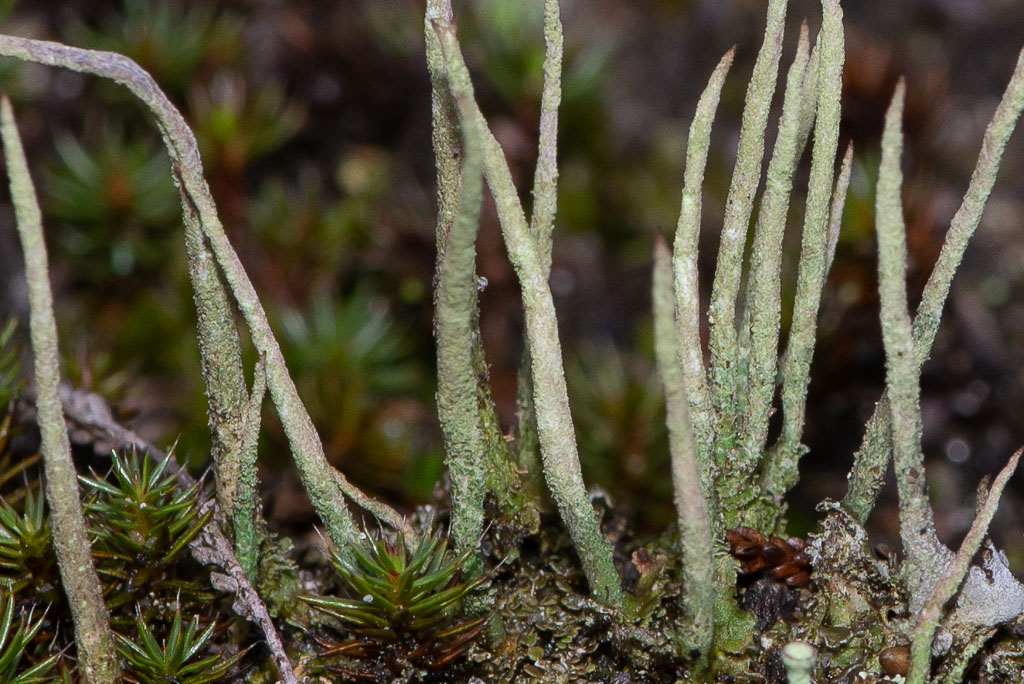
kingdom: Fungi
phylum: Ascomycota
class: Lecanoromycetes
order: Lecanorales
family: Cladoniaceae
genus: Cladonia
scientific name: Cladonia cornuta
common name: syl-bægerlav
